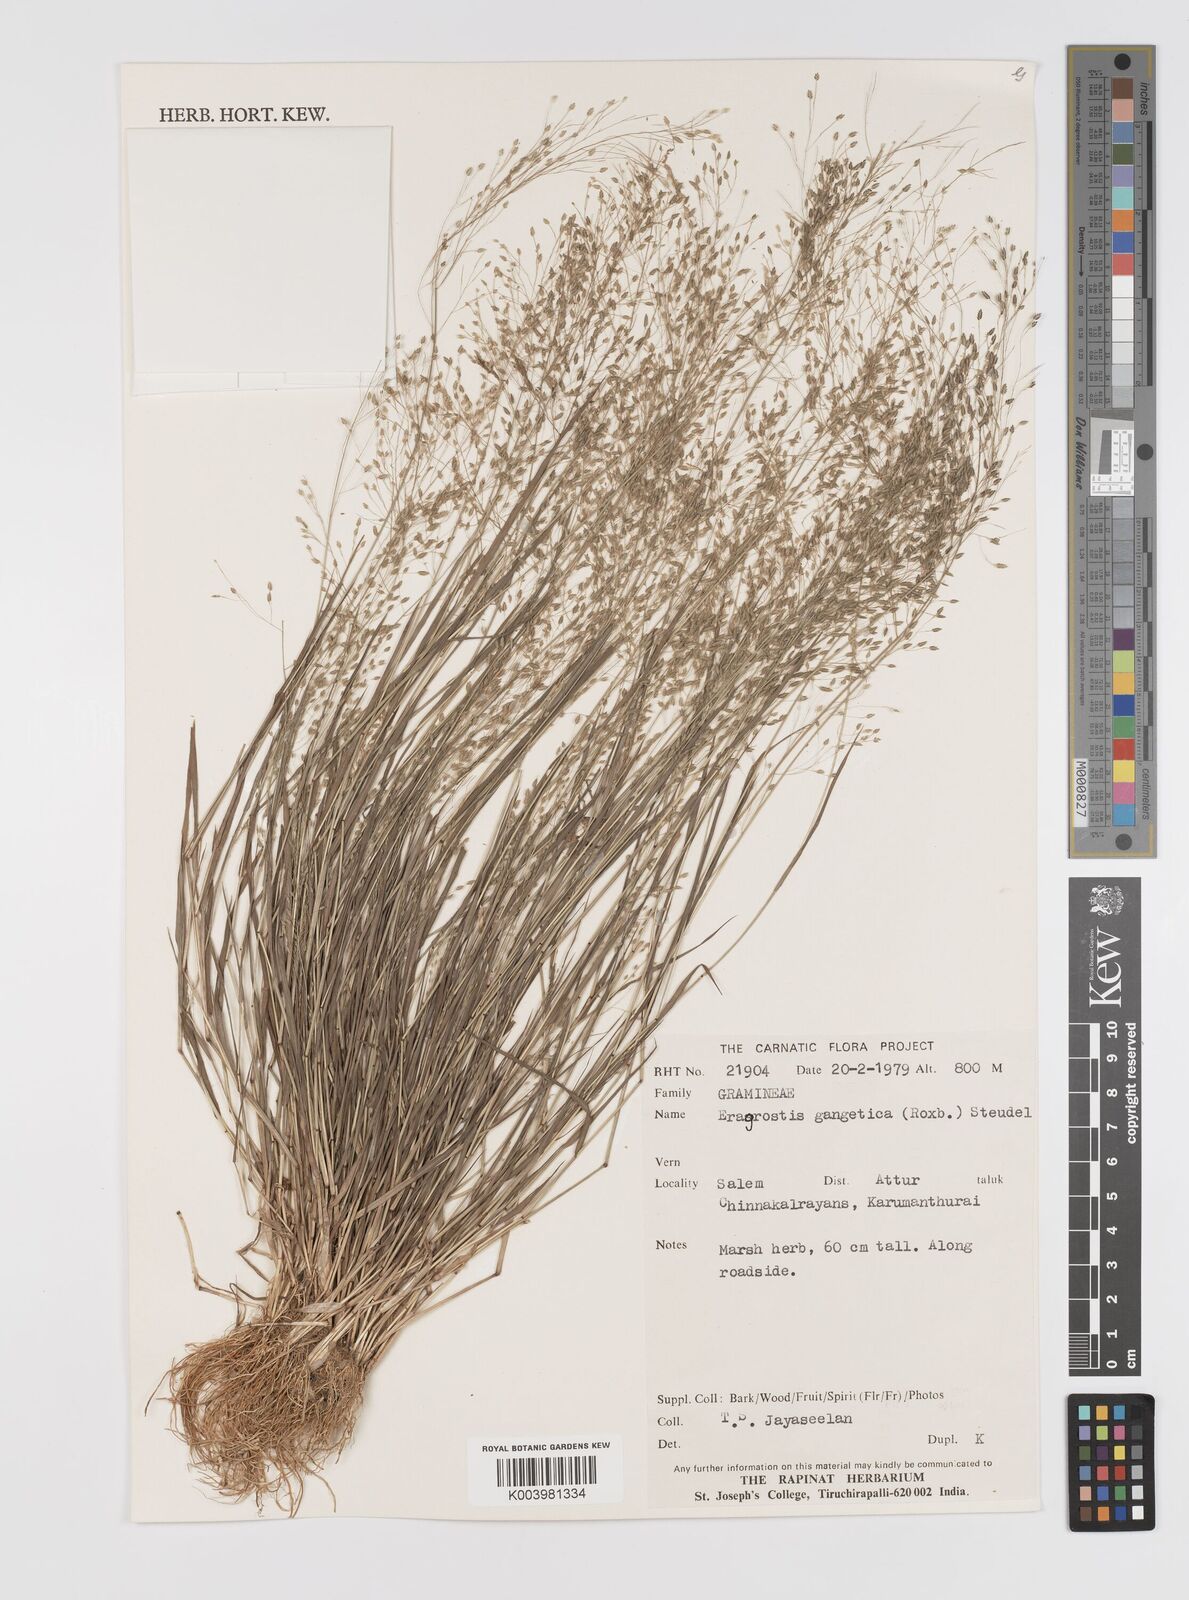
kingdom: Plantae
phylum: Tracheophyta
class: Liliopsida
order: Poales
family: Poaceae
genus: Eragrostis
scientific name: Eragrostis gangetica
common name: Slimflower lovegrass
